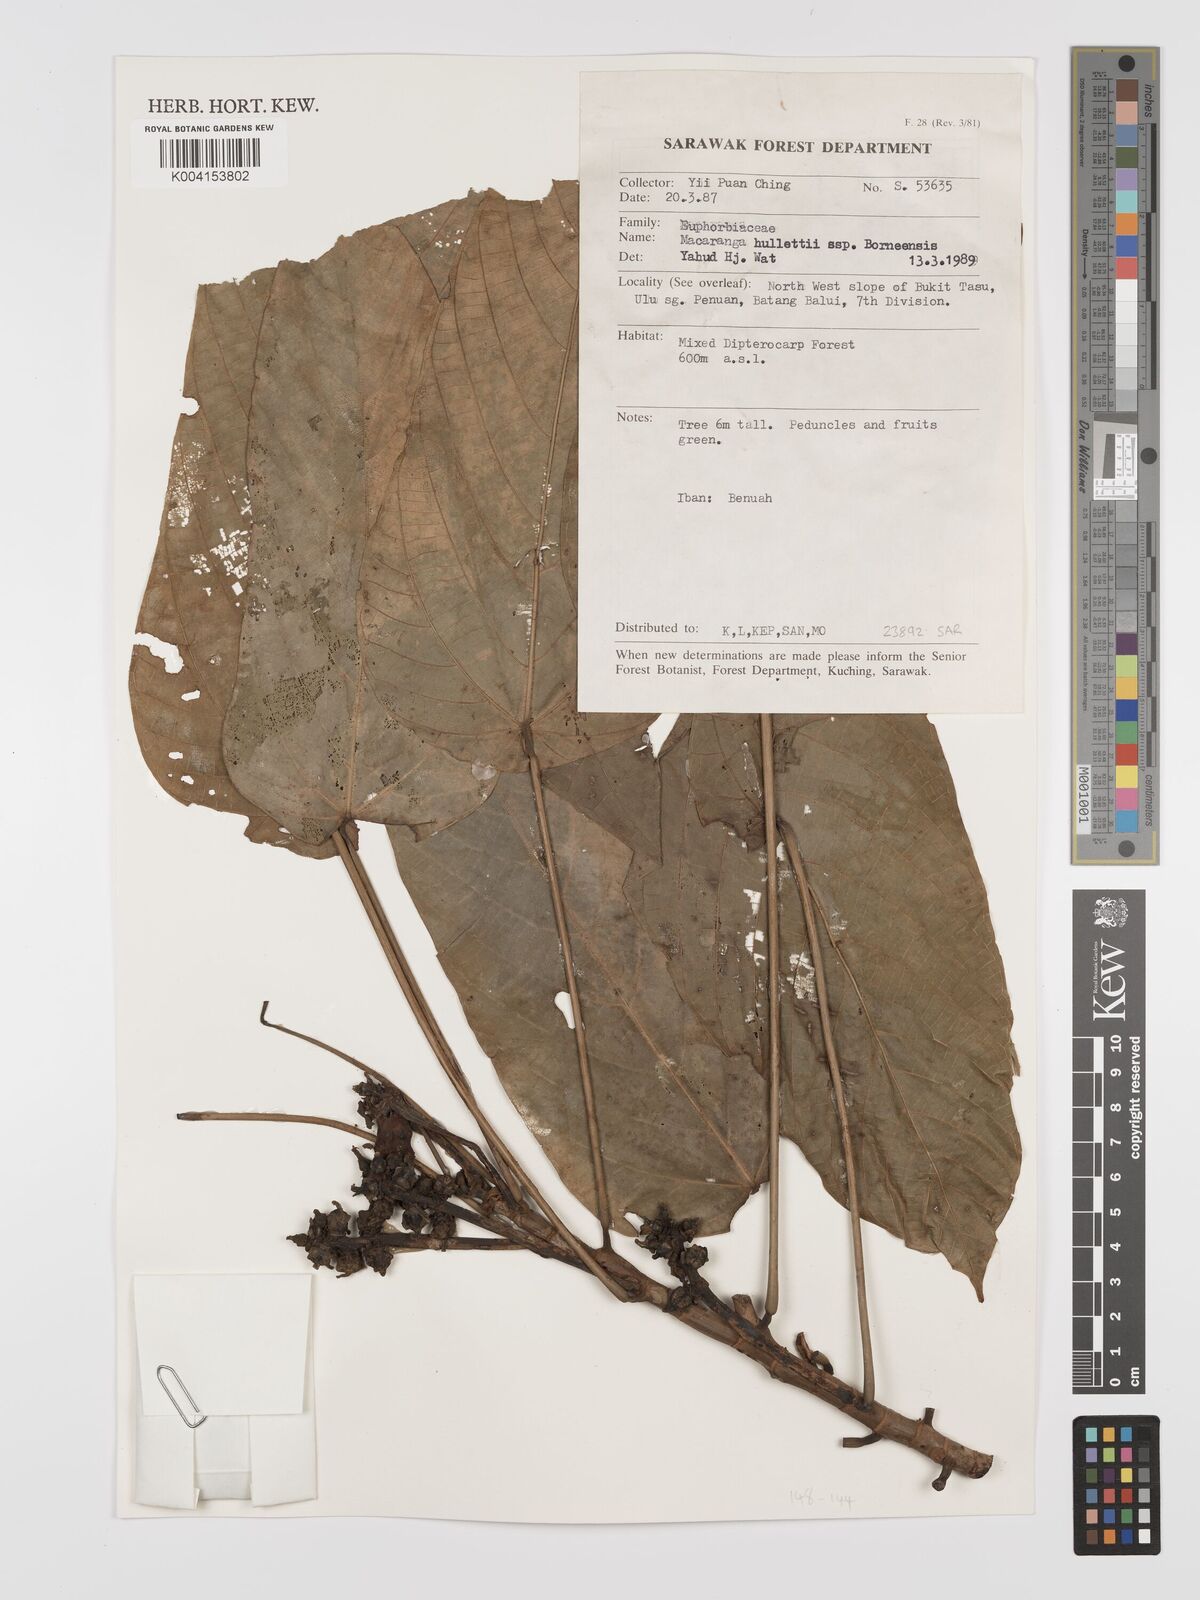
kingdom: Plantae
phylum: Tracheophyta
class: Magnoliopsida
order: Malpighiales
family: Euphorbiaceae
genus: Macaranga
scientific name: Macaranga hullettii
